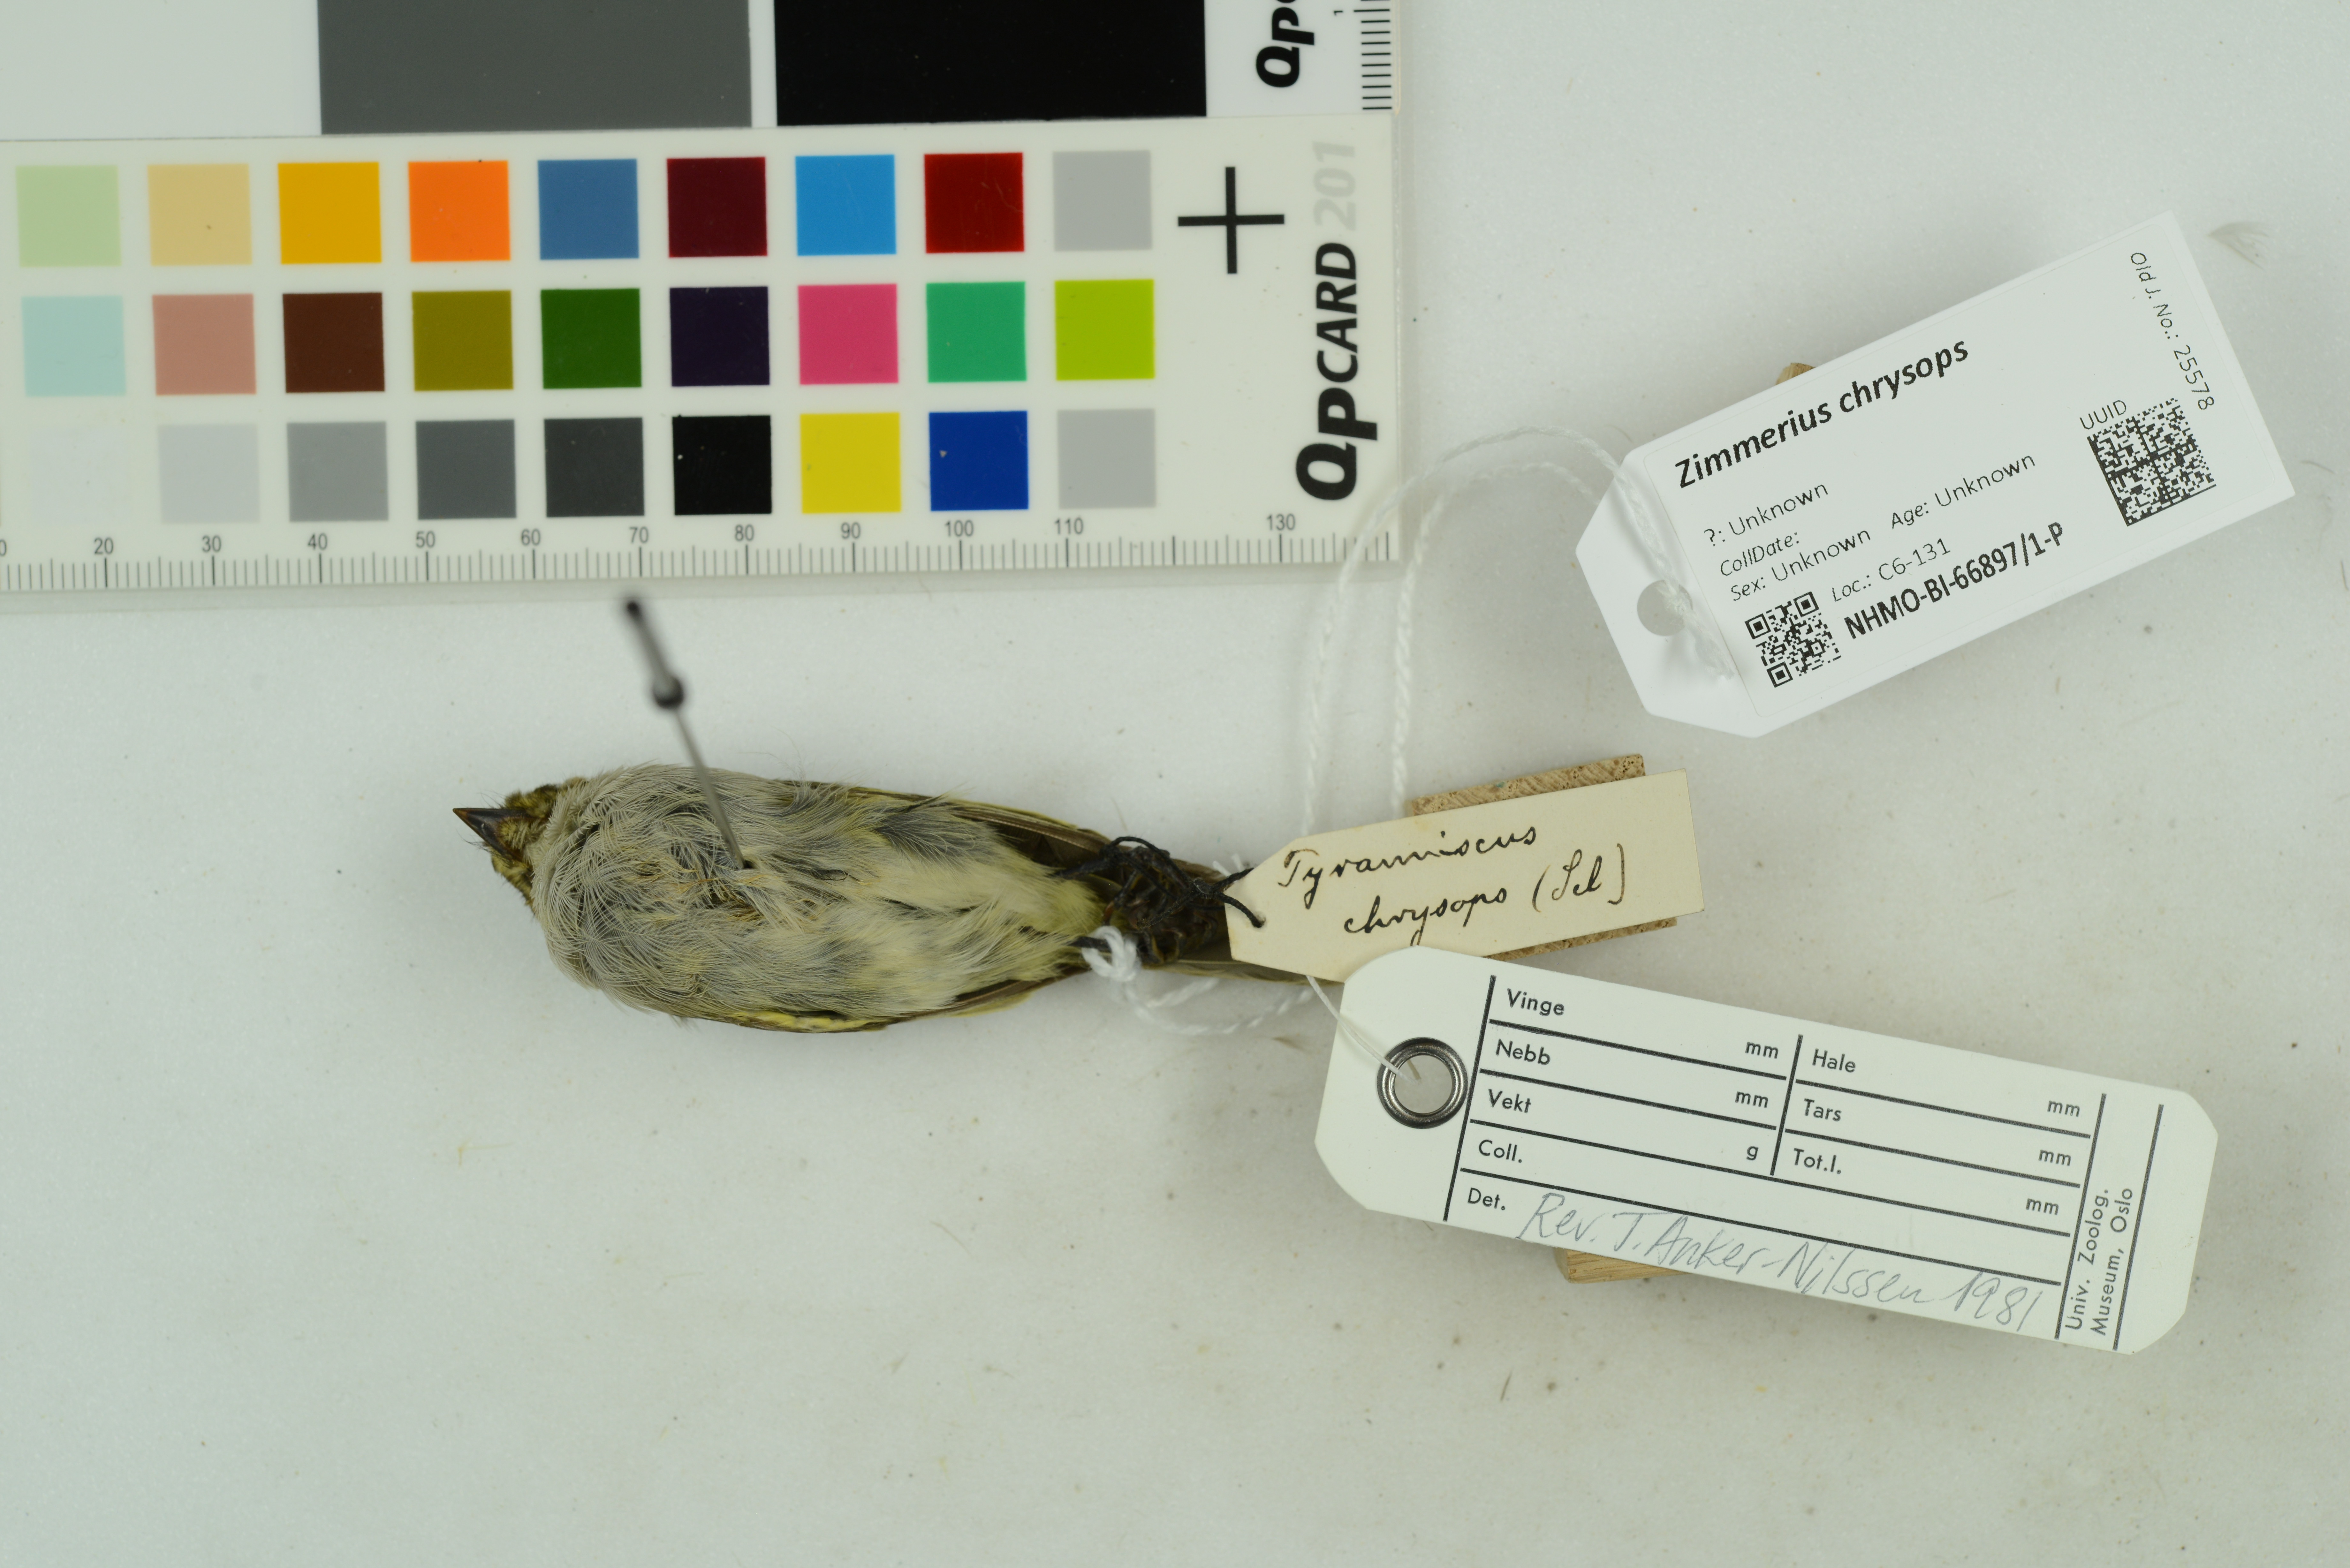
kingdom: Animalia
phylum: Chordata
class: Aves
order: Passeriformes
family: Tyrannidae
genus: Zimmerius
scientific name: Zimmerius chrysops
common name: Golden-faced tyrannulet
